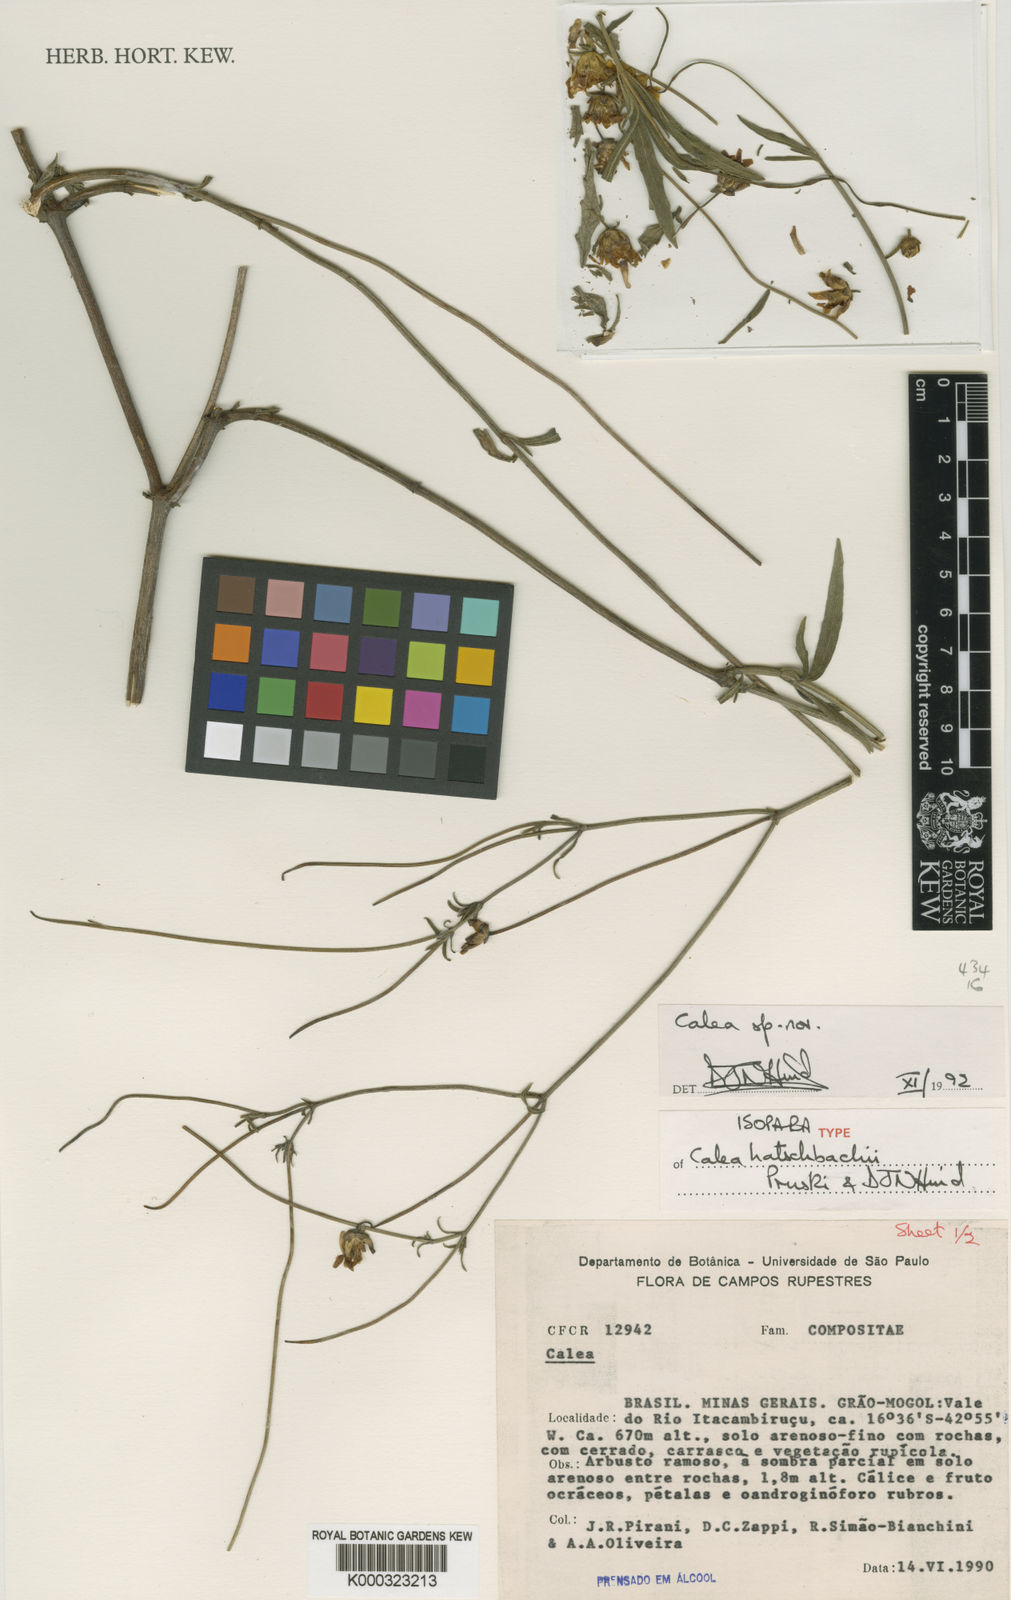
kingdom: Plantae
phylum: Tracheophyta
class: Magnoliopsida
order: Asterales
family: Asteraceae
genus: Calea
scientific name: Calea hatschbachii
